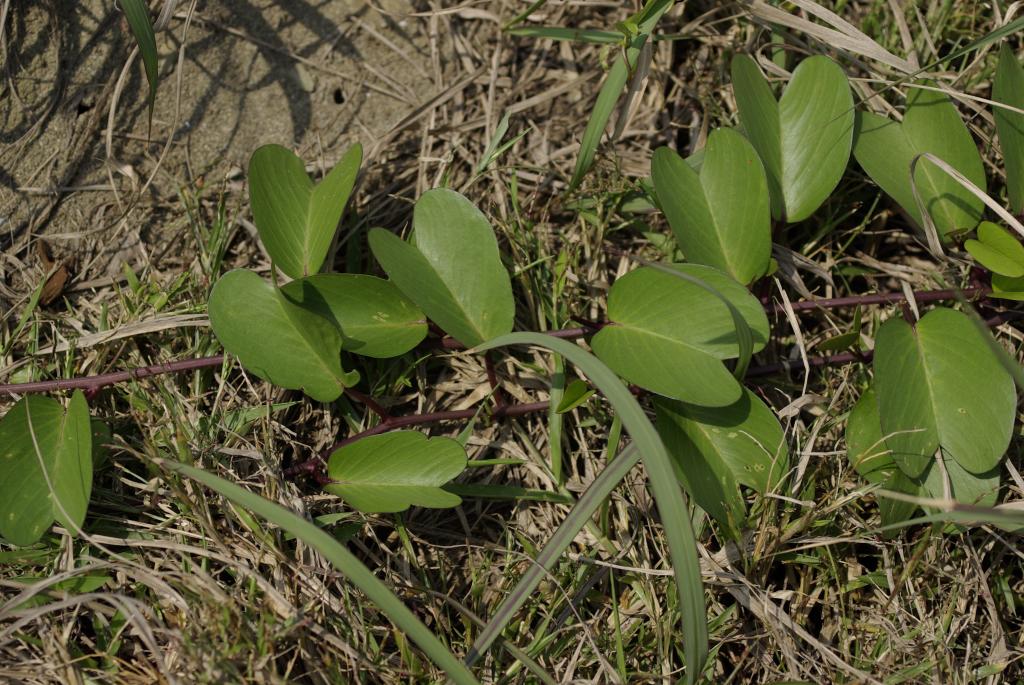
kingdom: Plantae
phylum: Tracheophyta
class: Magnoliopsida
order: Solanales
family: Convolvulaceae
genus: Ipomoea
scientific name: Ipomoea pes-caprae
